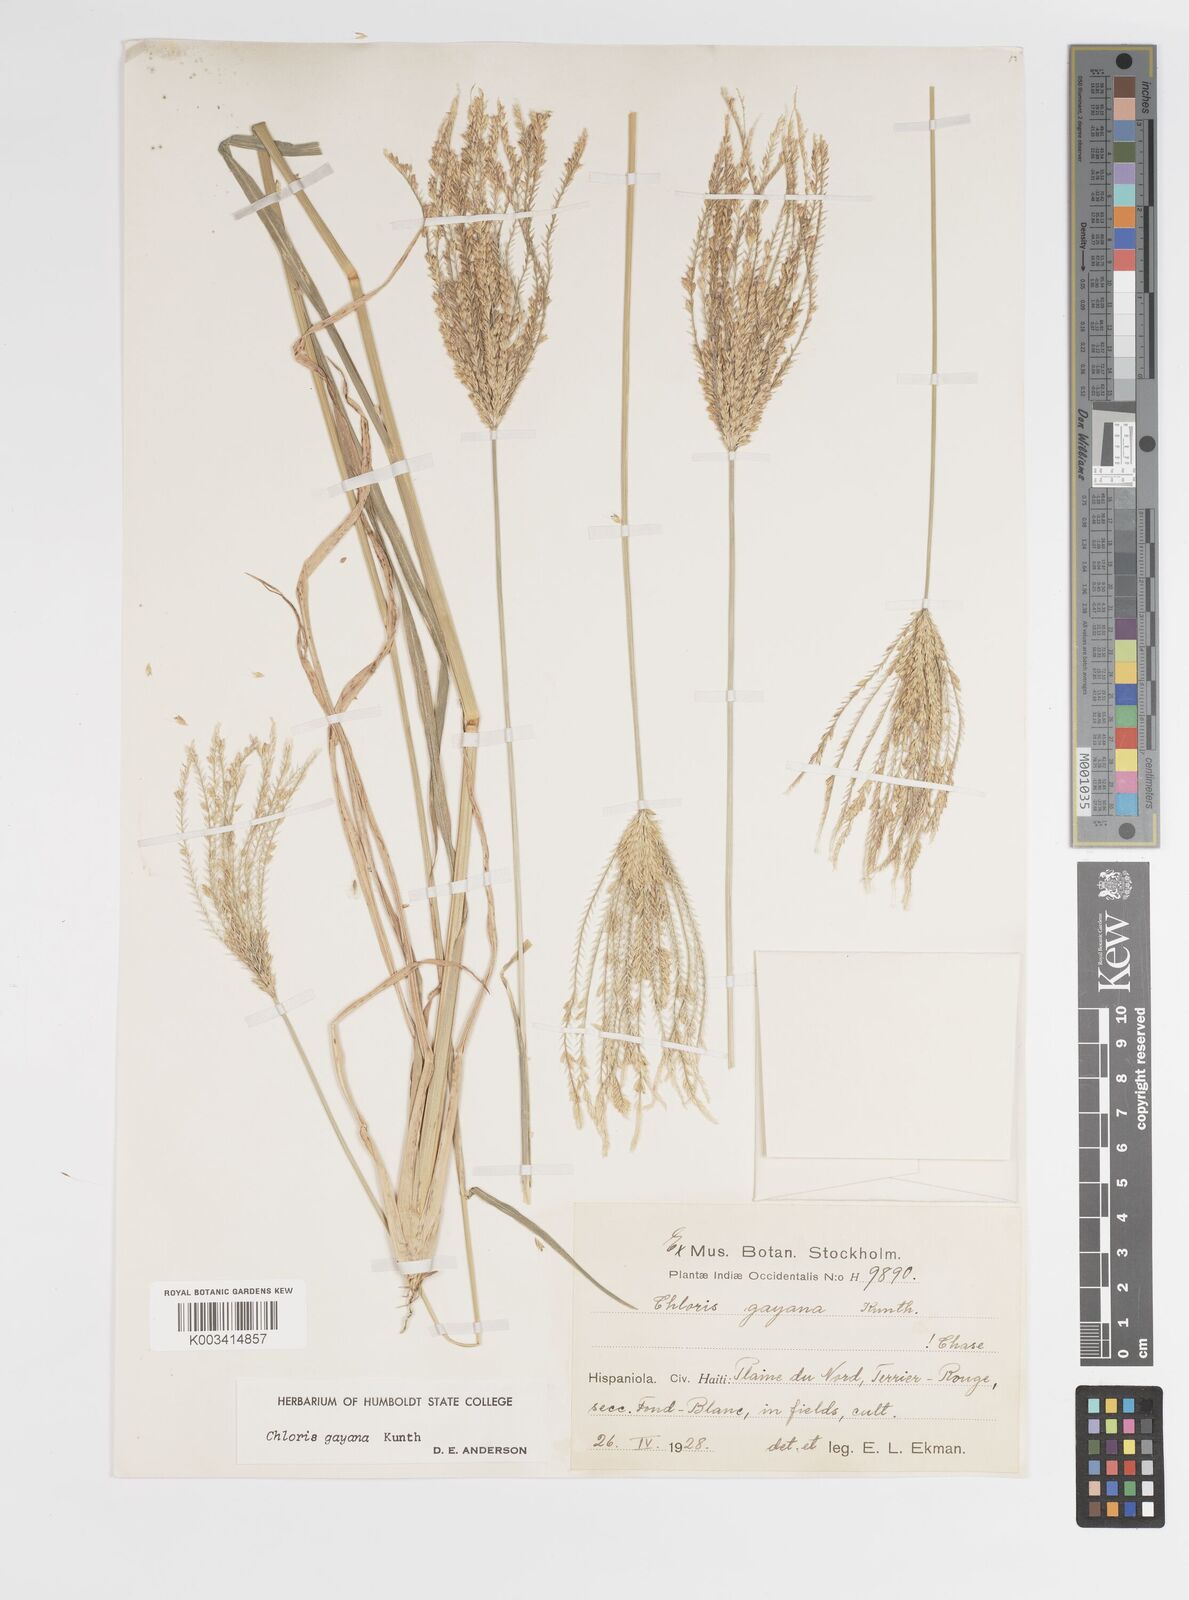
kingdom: Plantae
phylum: Tracheophyta
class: Liliopsida
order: Poales
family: Poaceae
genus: Chloris
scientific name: Chloris gayana
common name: Rhodes grass
